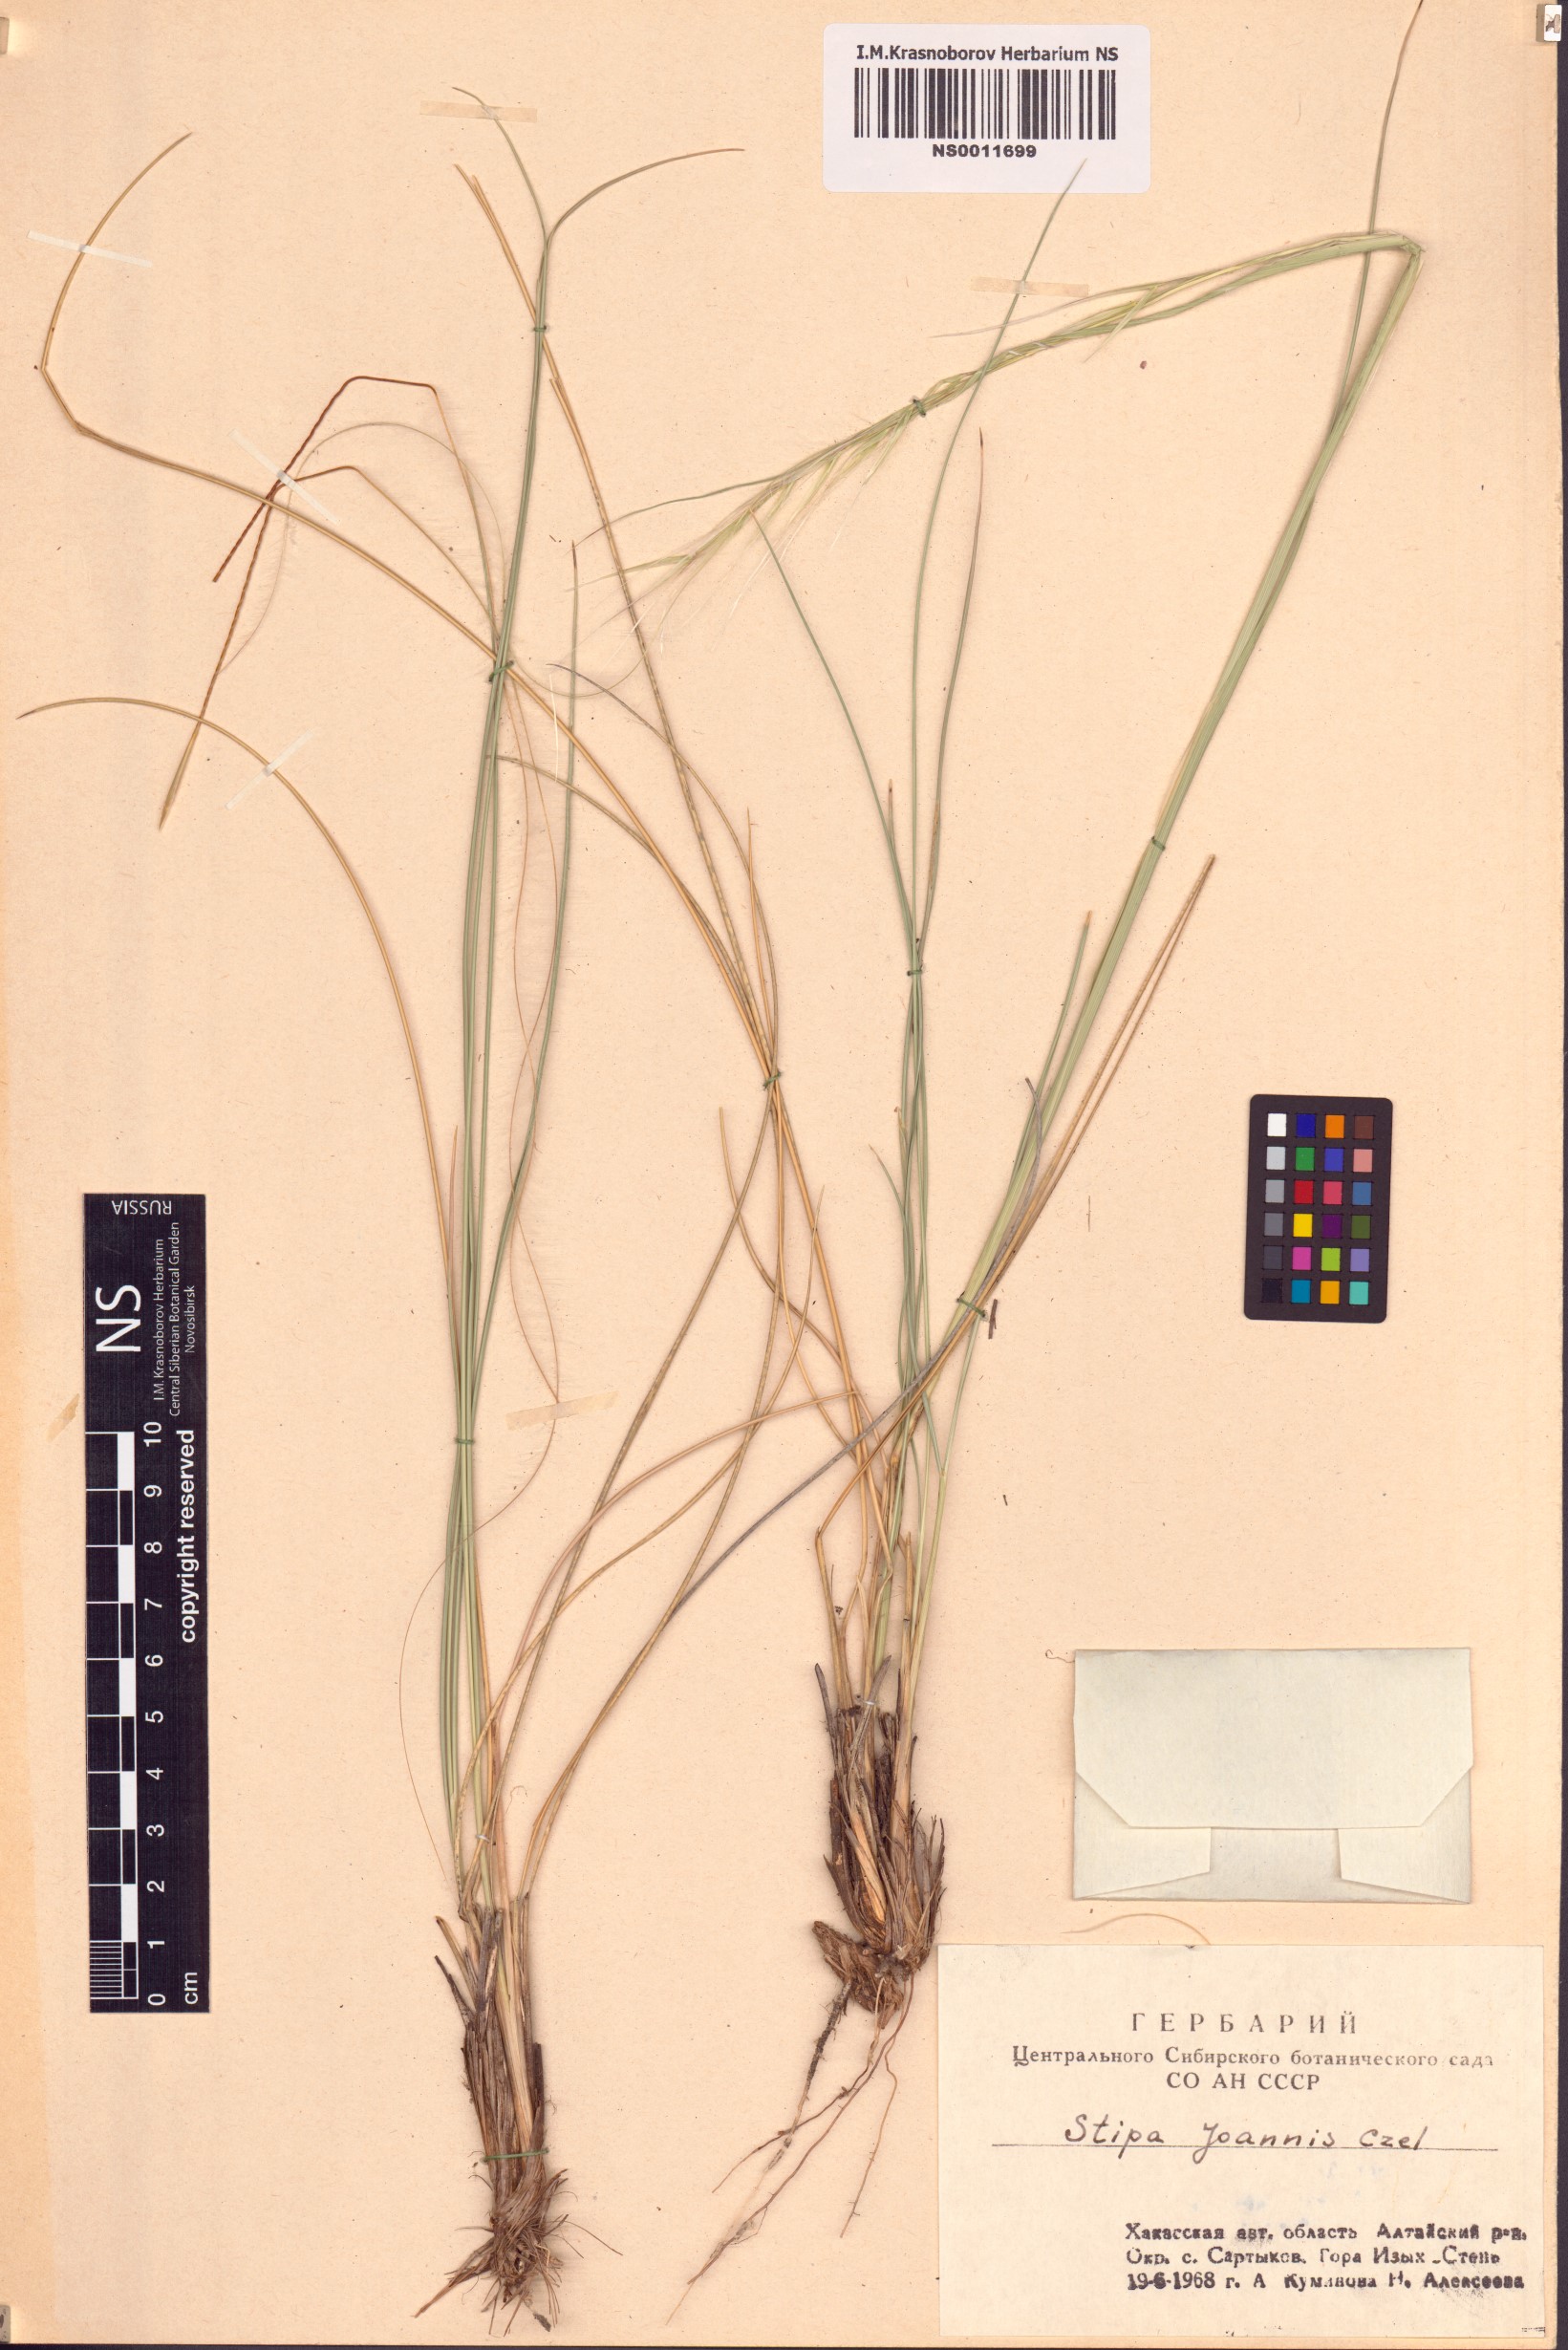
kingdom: Plantae
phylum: Tracheophyta
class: Liliopsida
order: Poales
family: Poaceae
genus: Stipa
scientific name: Stipa pennata
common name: European feather grass
